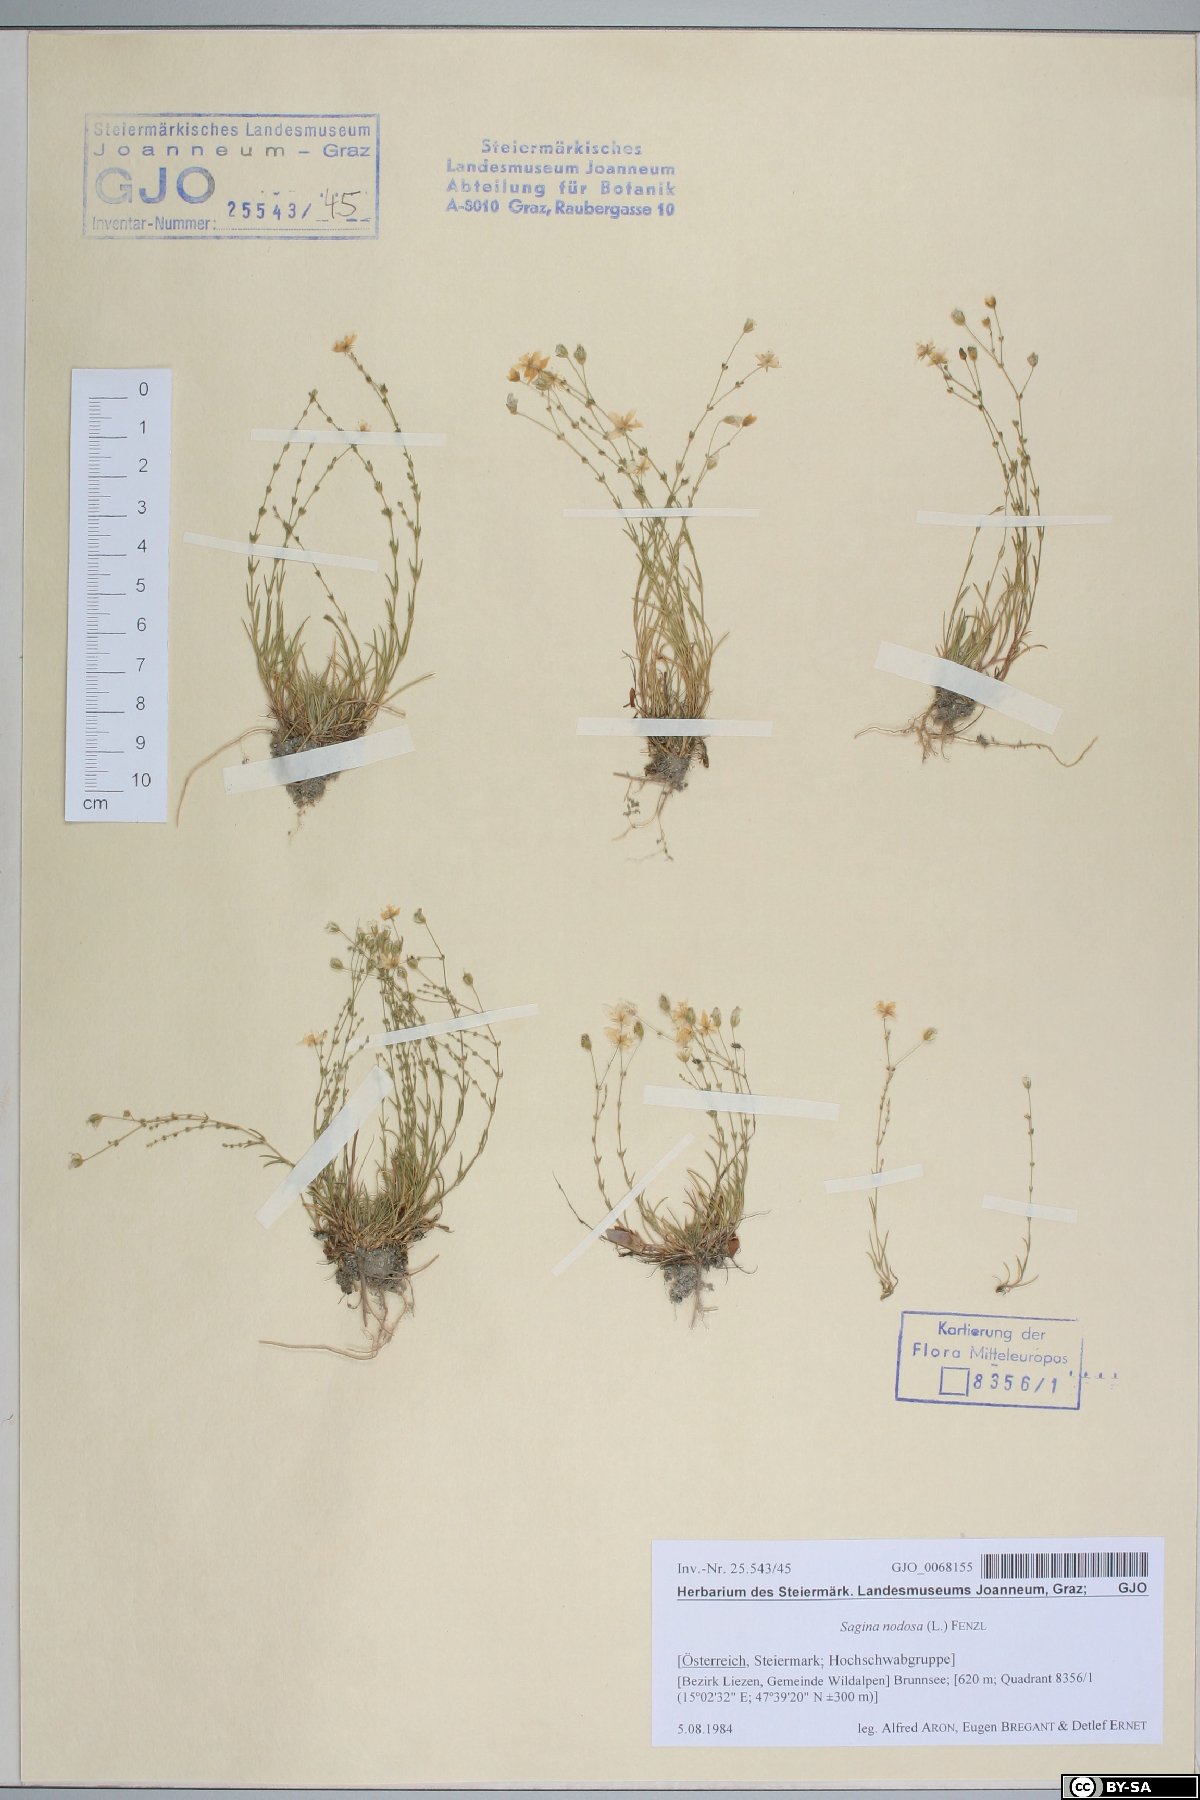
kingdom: Plantae
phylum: Tracheophyta
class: Magnoliopsida
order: Caryophyllales
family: Caryophyllaceae
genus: Sagina
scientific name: Sagina nodosa
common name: Knotted pearlwort
